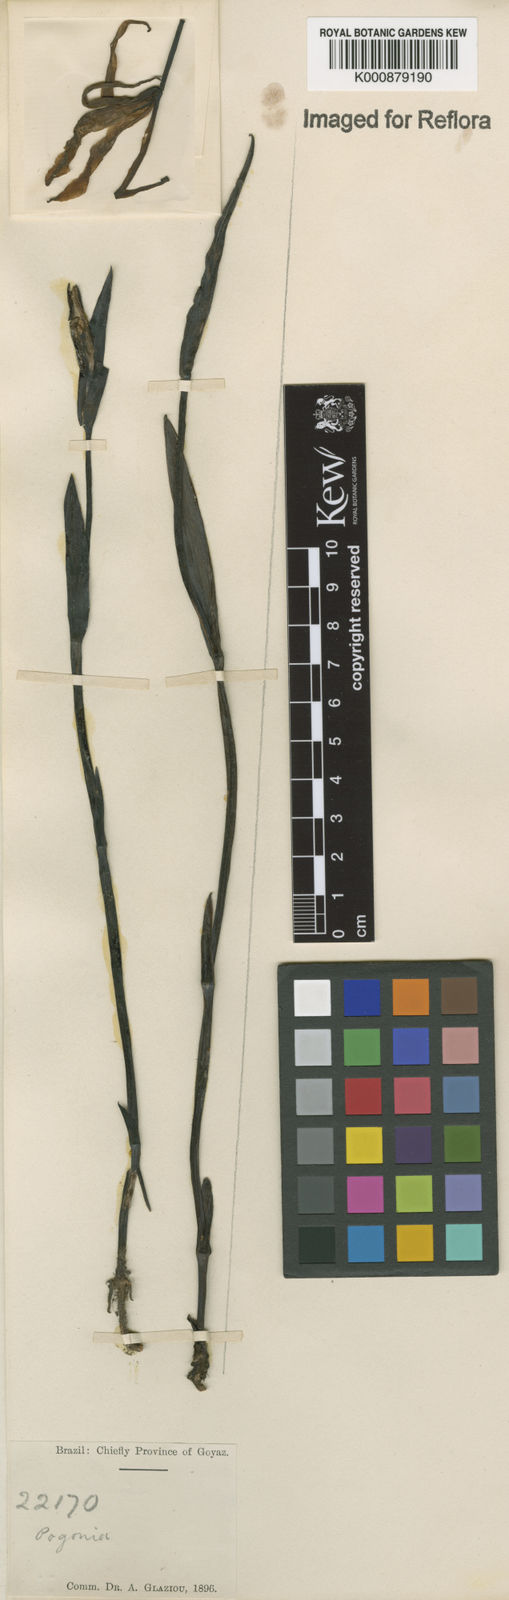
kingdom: Plantae
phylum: Tracheophyta
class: Liliopsida
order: Asparagales
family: Orchidaceae
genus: Cleistes
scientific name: Cleistes
